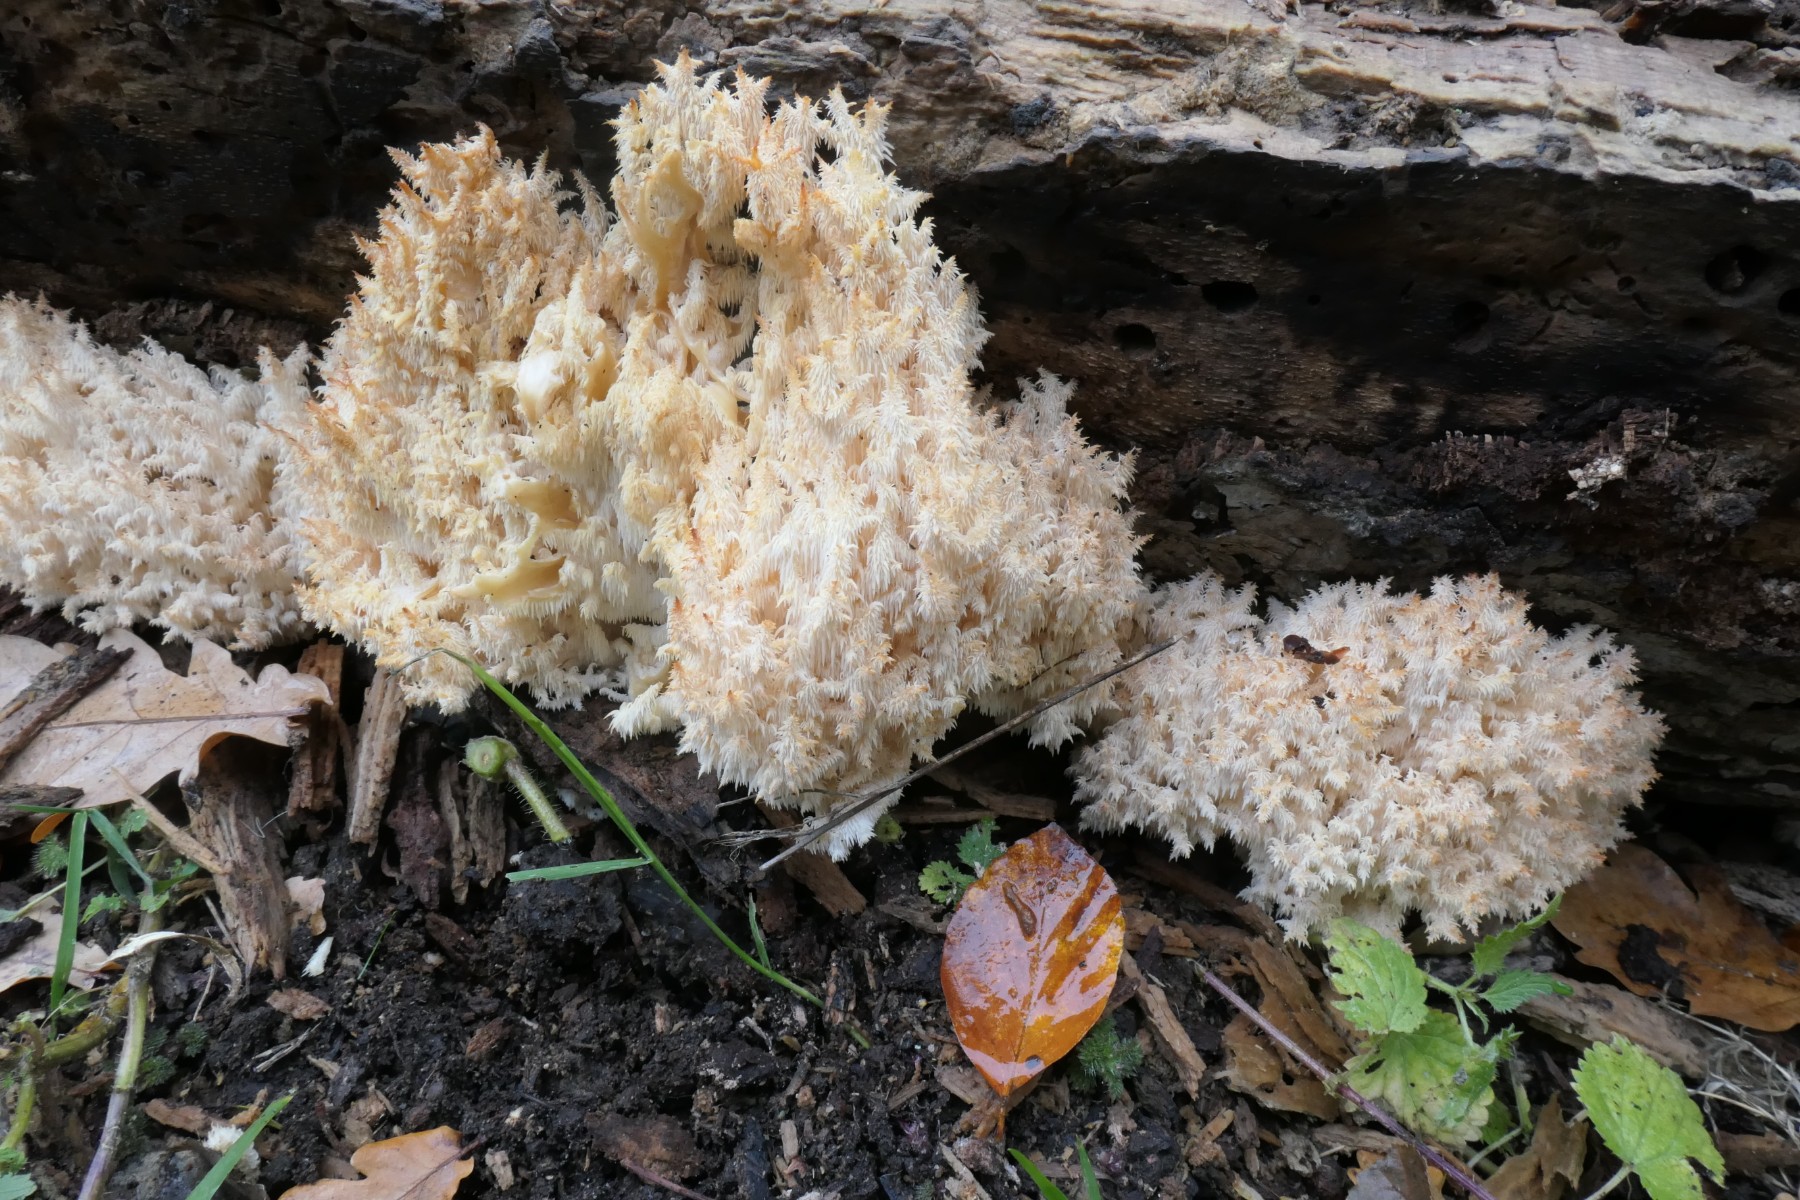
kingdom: Fungi
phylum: Basidiomycota
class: Agaricomycetes
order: Russulales
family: Hericiaceae
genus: Hericium
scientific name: Hericium coralloides
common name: koralpigsvamp
